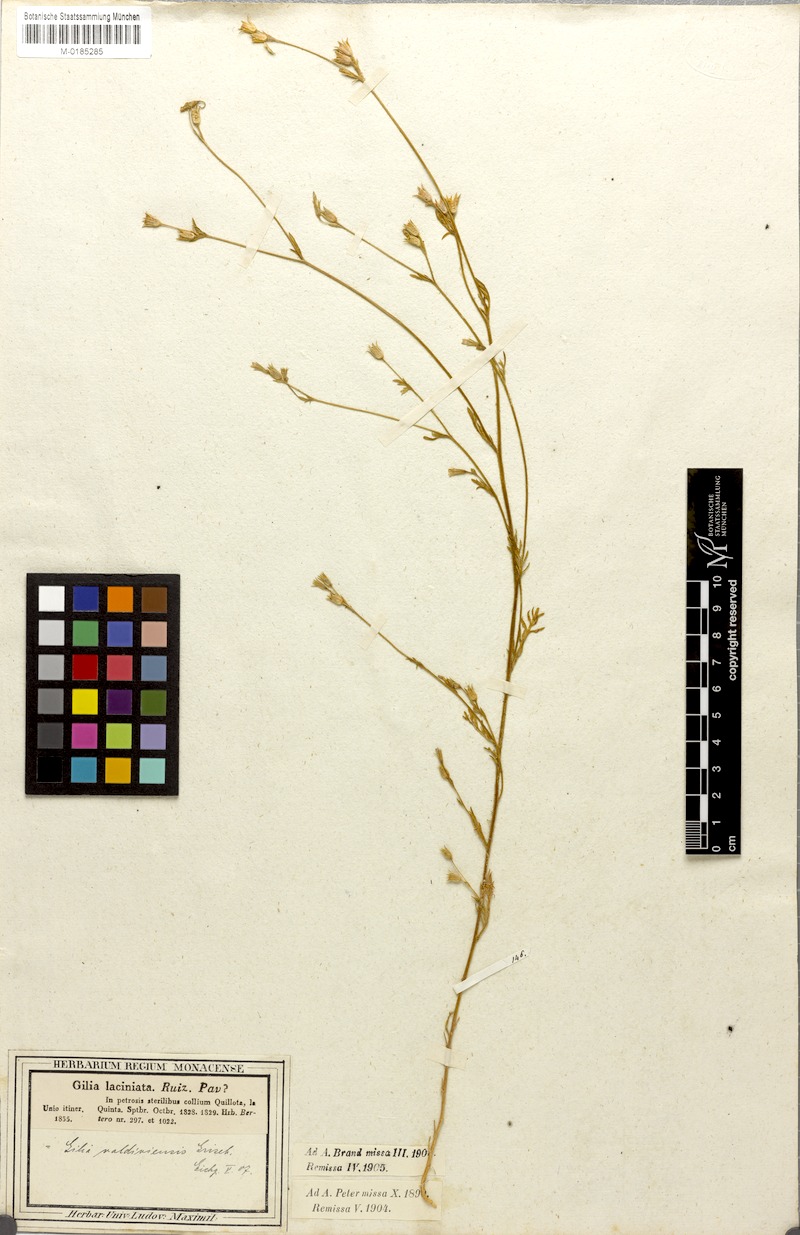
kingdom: Plantae
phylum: Tracheophyta
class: Magnoliopsida
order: Ericales
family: Polemoniaceae
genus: Gilia
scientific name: Gilia valdiviensis
